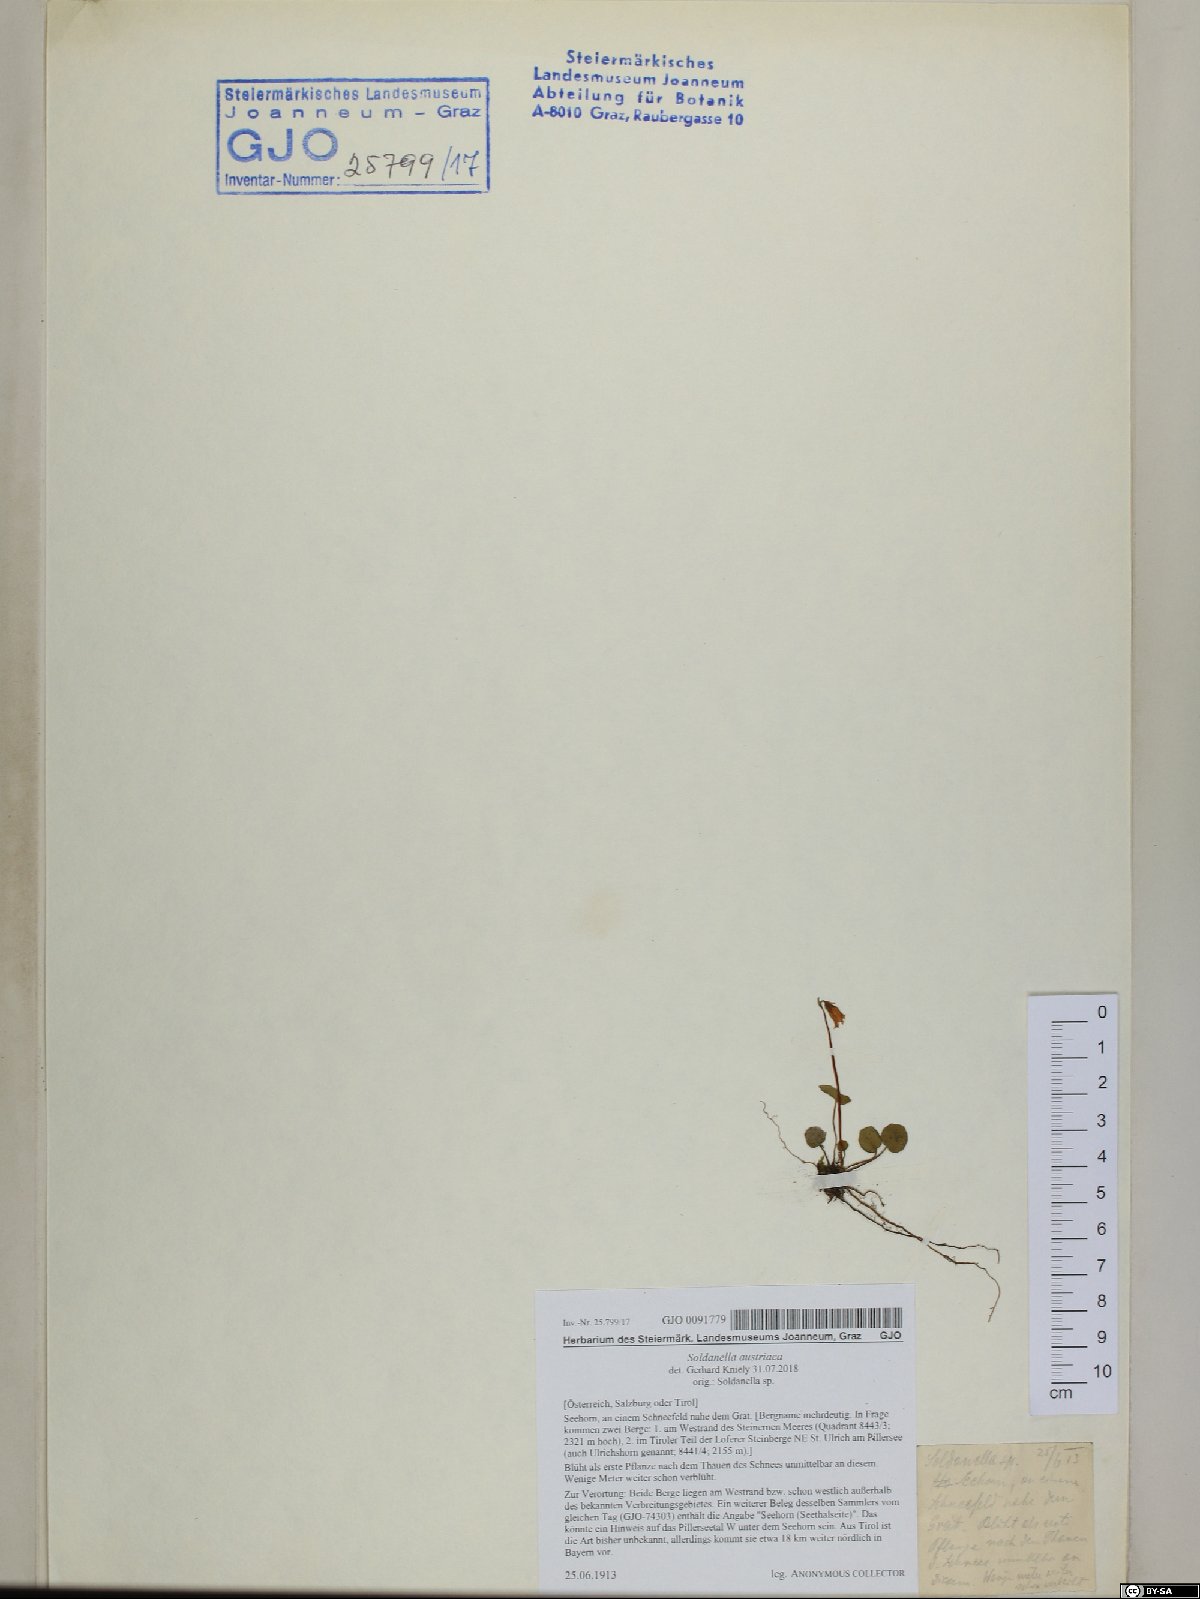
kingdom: Plantae
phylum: Tracheophyta
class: Magnoliopsida
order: Ericales
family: Primulaceae
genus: Soldanella
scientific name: Soldanella pusilla
